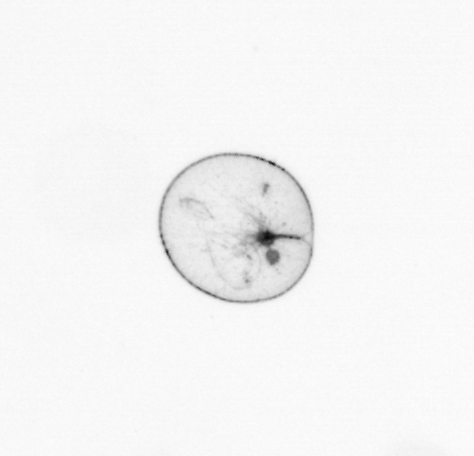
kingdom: Chromista
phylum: Myzozoa
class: Dinophyceae
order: Noctilucales
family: Noctilucaceae
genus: Noctiluca
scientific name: Noctiluca scintillans
